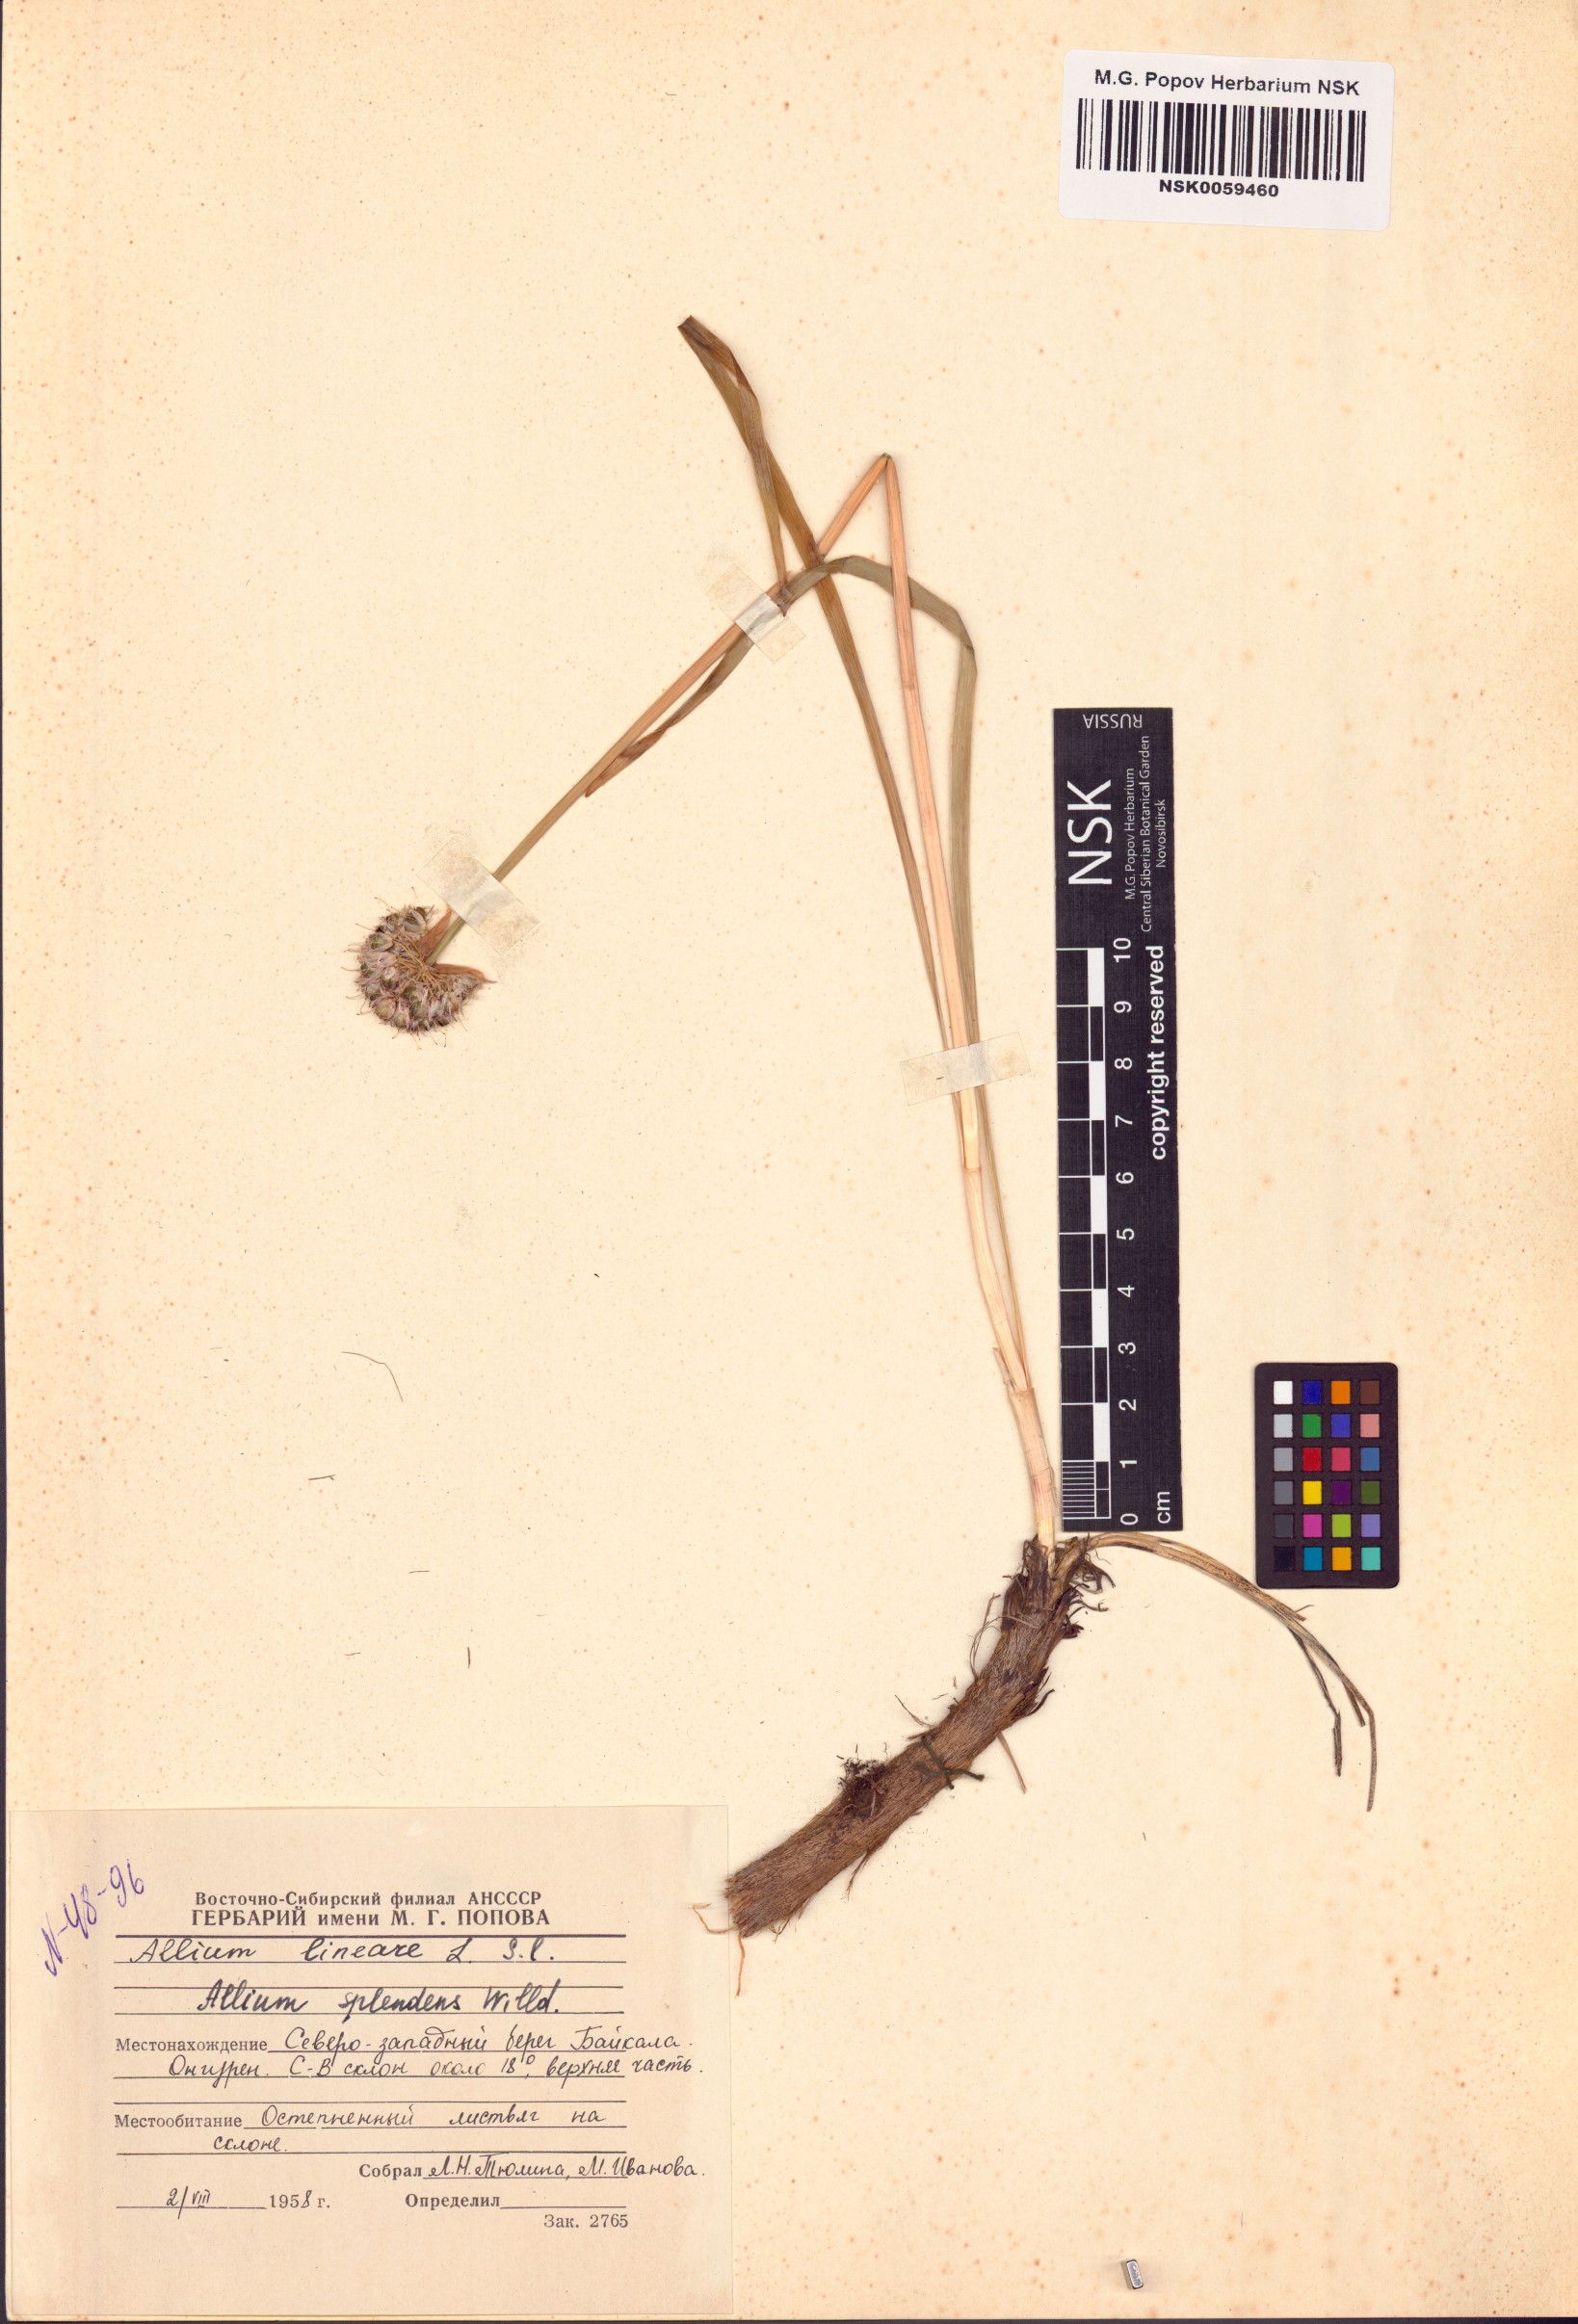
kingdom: Plantae
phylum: Tracheophyta
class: Liliopsida
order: Asparagales
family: Amaryllidaceae
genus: Allium
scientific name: Allium splendens
